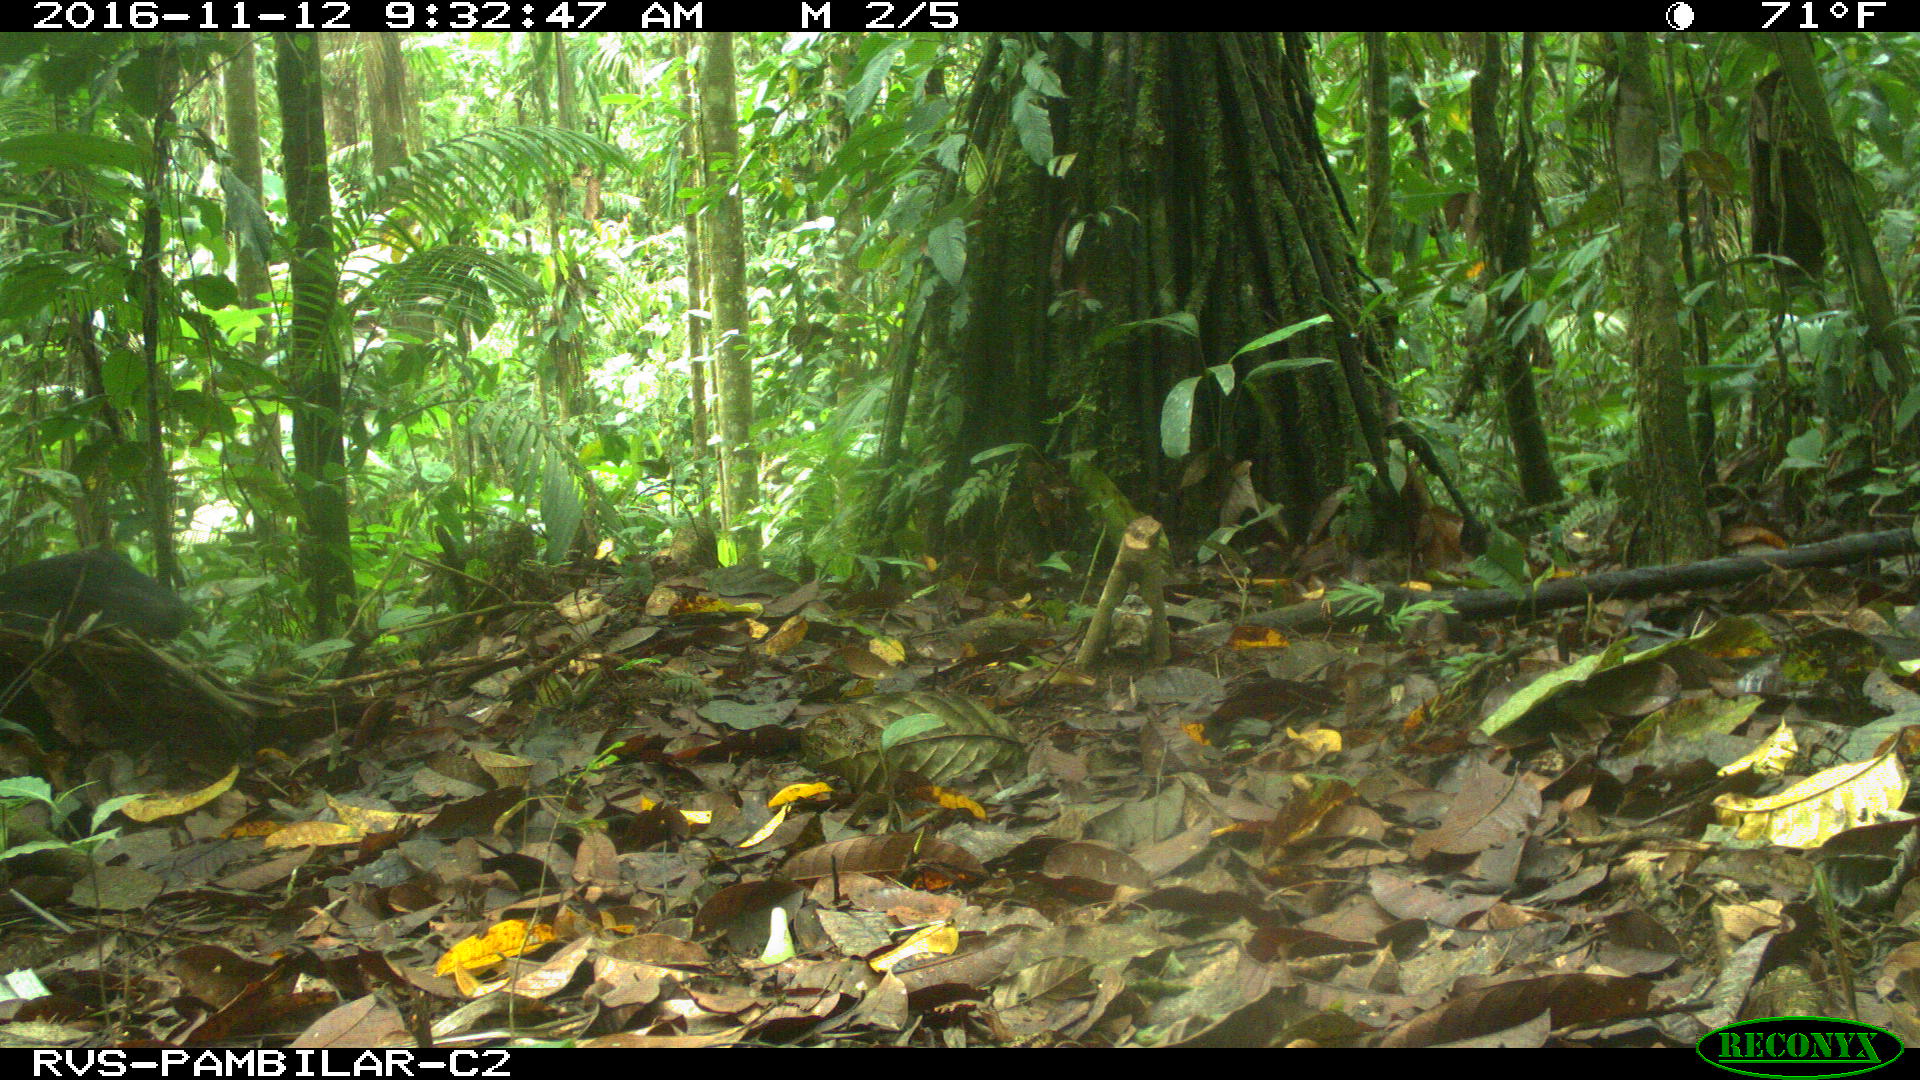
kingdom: Animalia
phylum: Chordata
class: Mammalia
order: Artiodactyla
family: Tayassuidae
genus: Pecari
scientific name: Pecari tajacu
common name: Collared peccary
